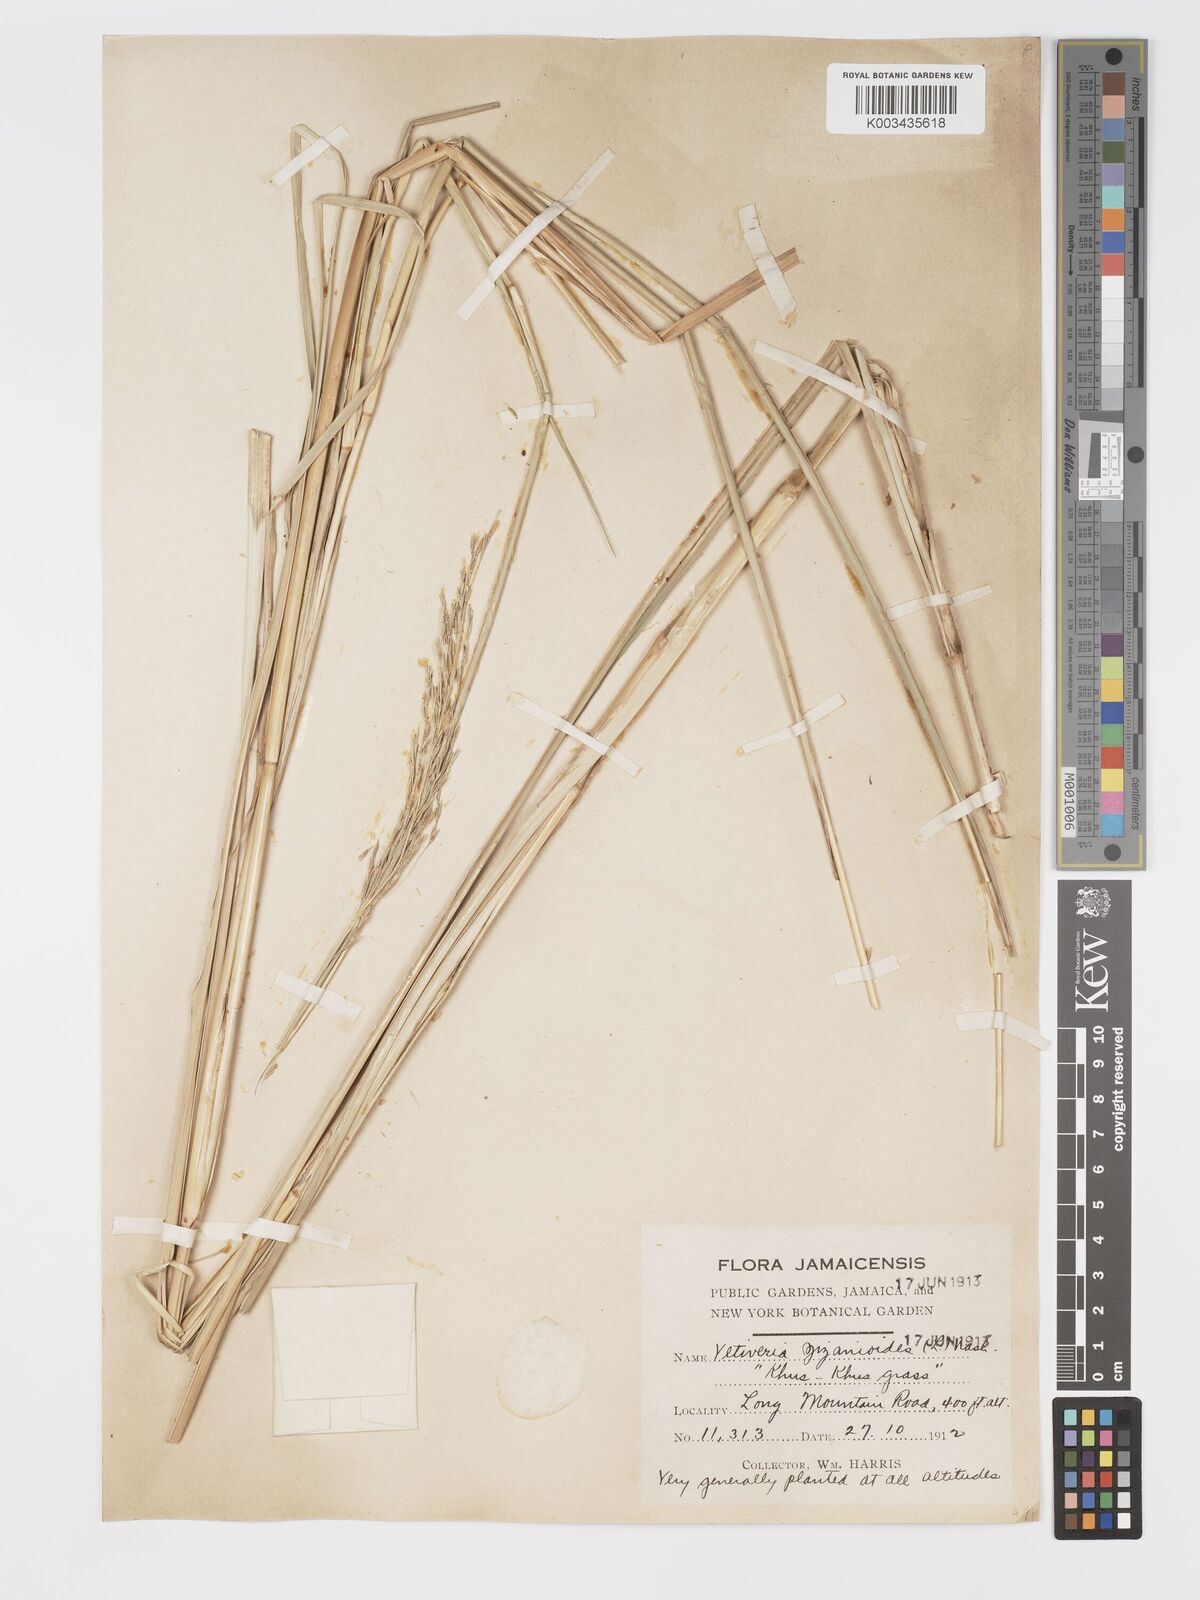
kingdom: Plantae
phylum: Tracheophyta
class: Liliopsida
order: Poales
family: Poaceae
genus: Chrysopogon
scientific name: Chrysopogon zizanioides
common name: False beardgrass
